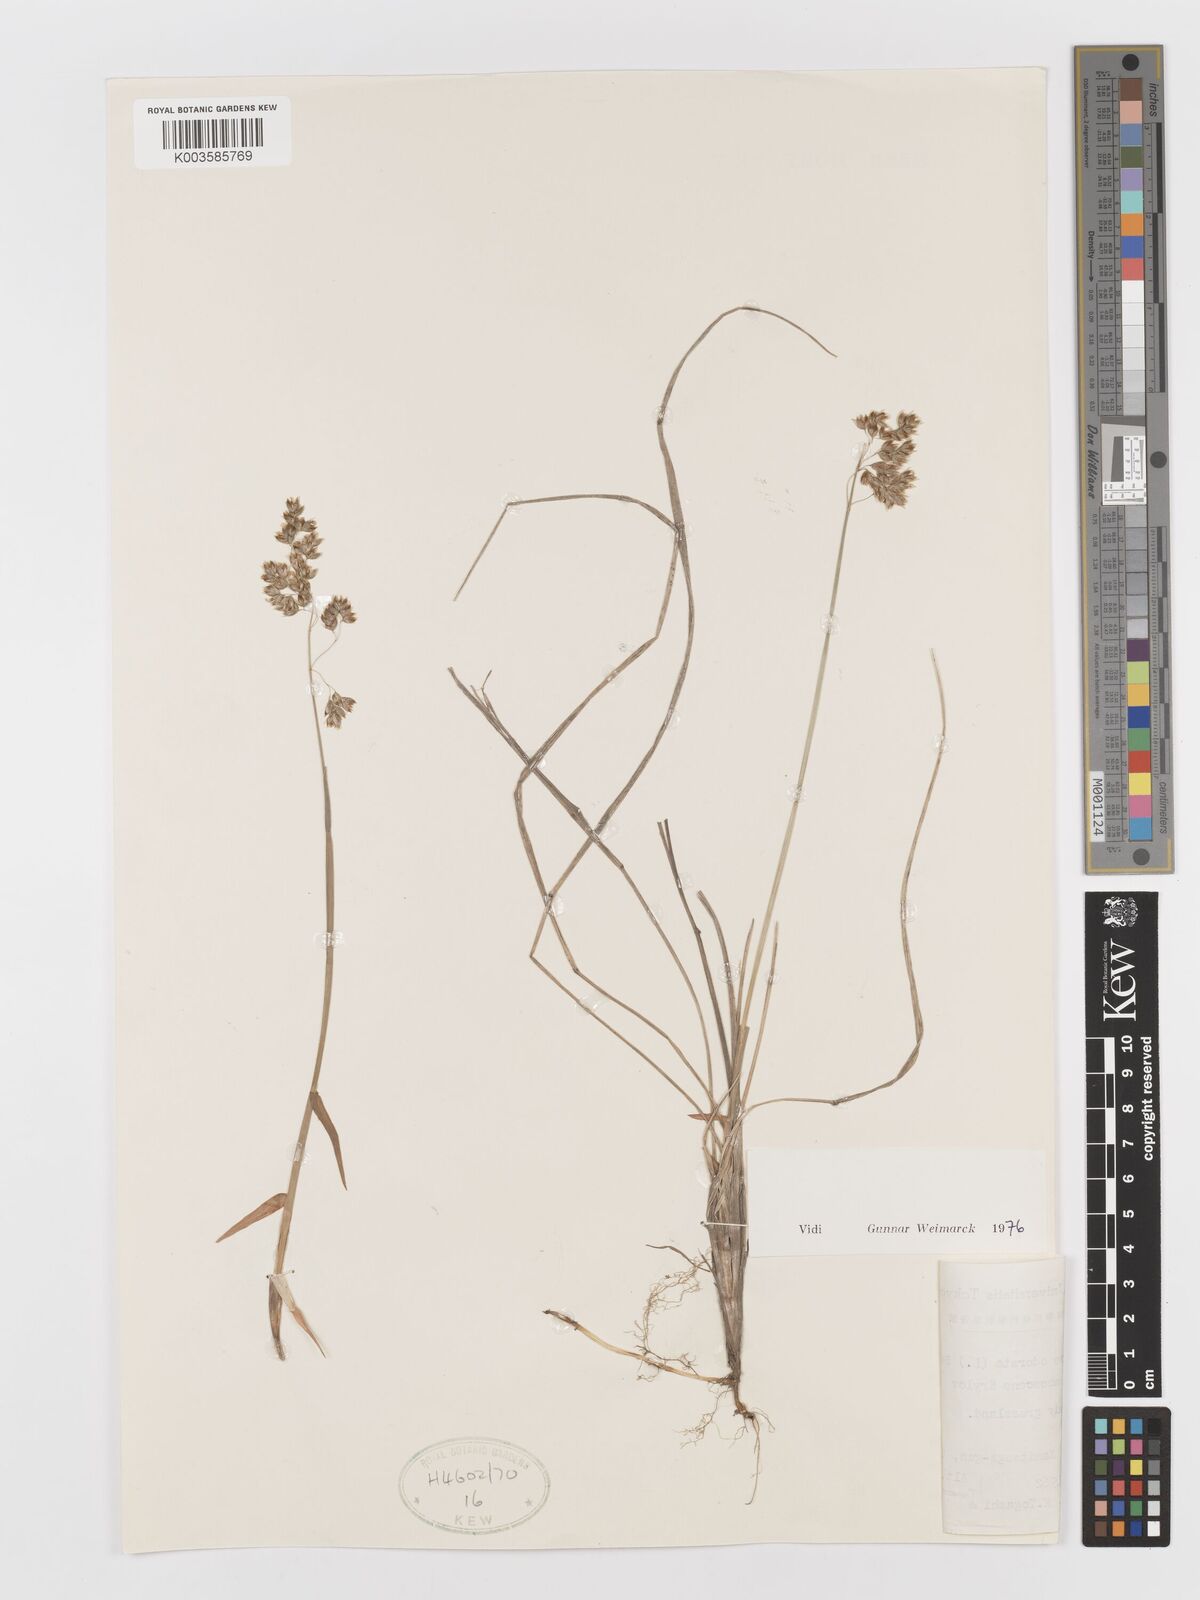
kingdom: Plantae
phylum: Tracheophyta
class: Liliopsida
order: Poales
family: Poaceae
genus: Anthoxanthum
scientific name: Anthoxanthum nitens
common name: Holy grass
